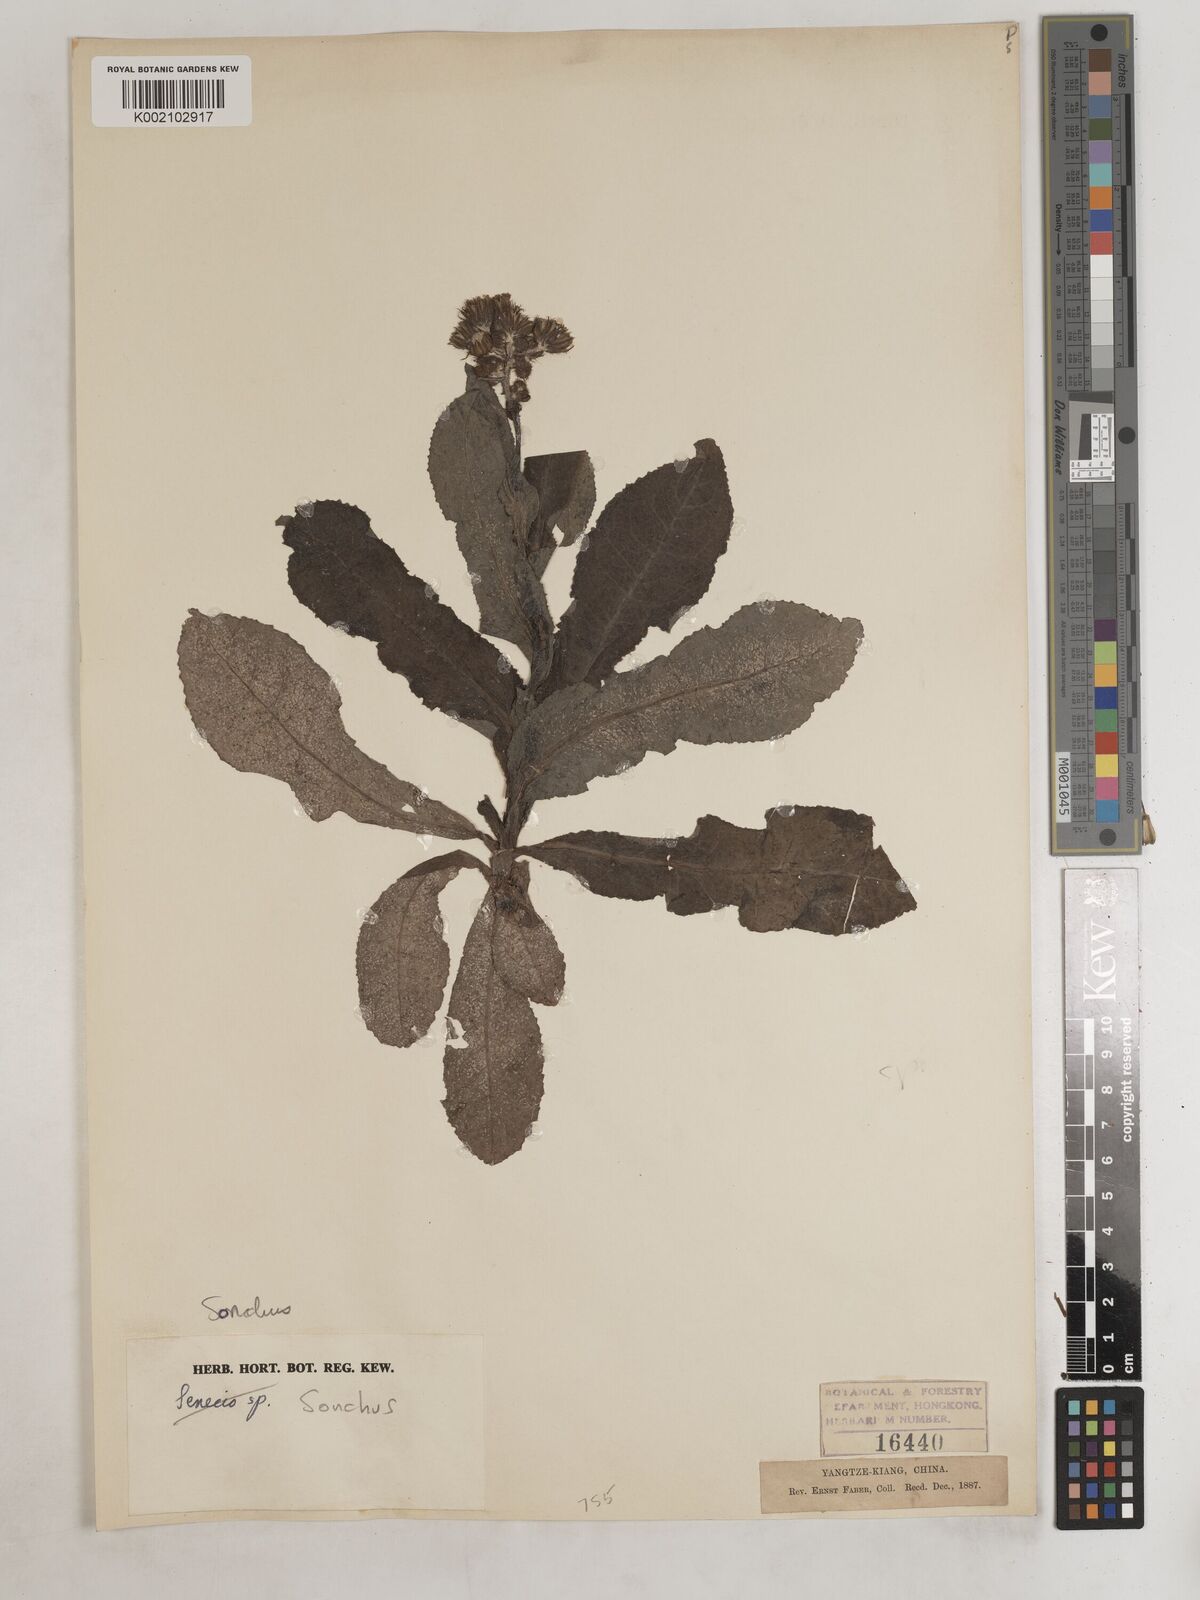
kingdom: Plantae
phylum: Tracheophyta
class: Magnoliopsida
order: Asterales
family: Asteraceae
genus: Sonchus
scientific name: Sonchus
